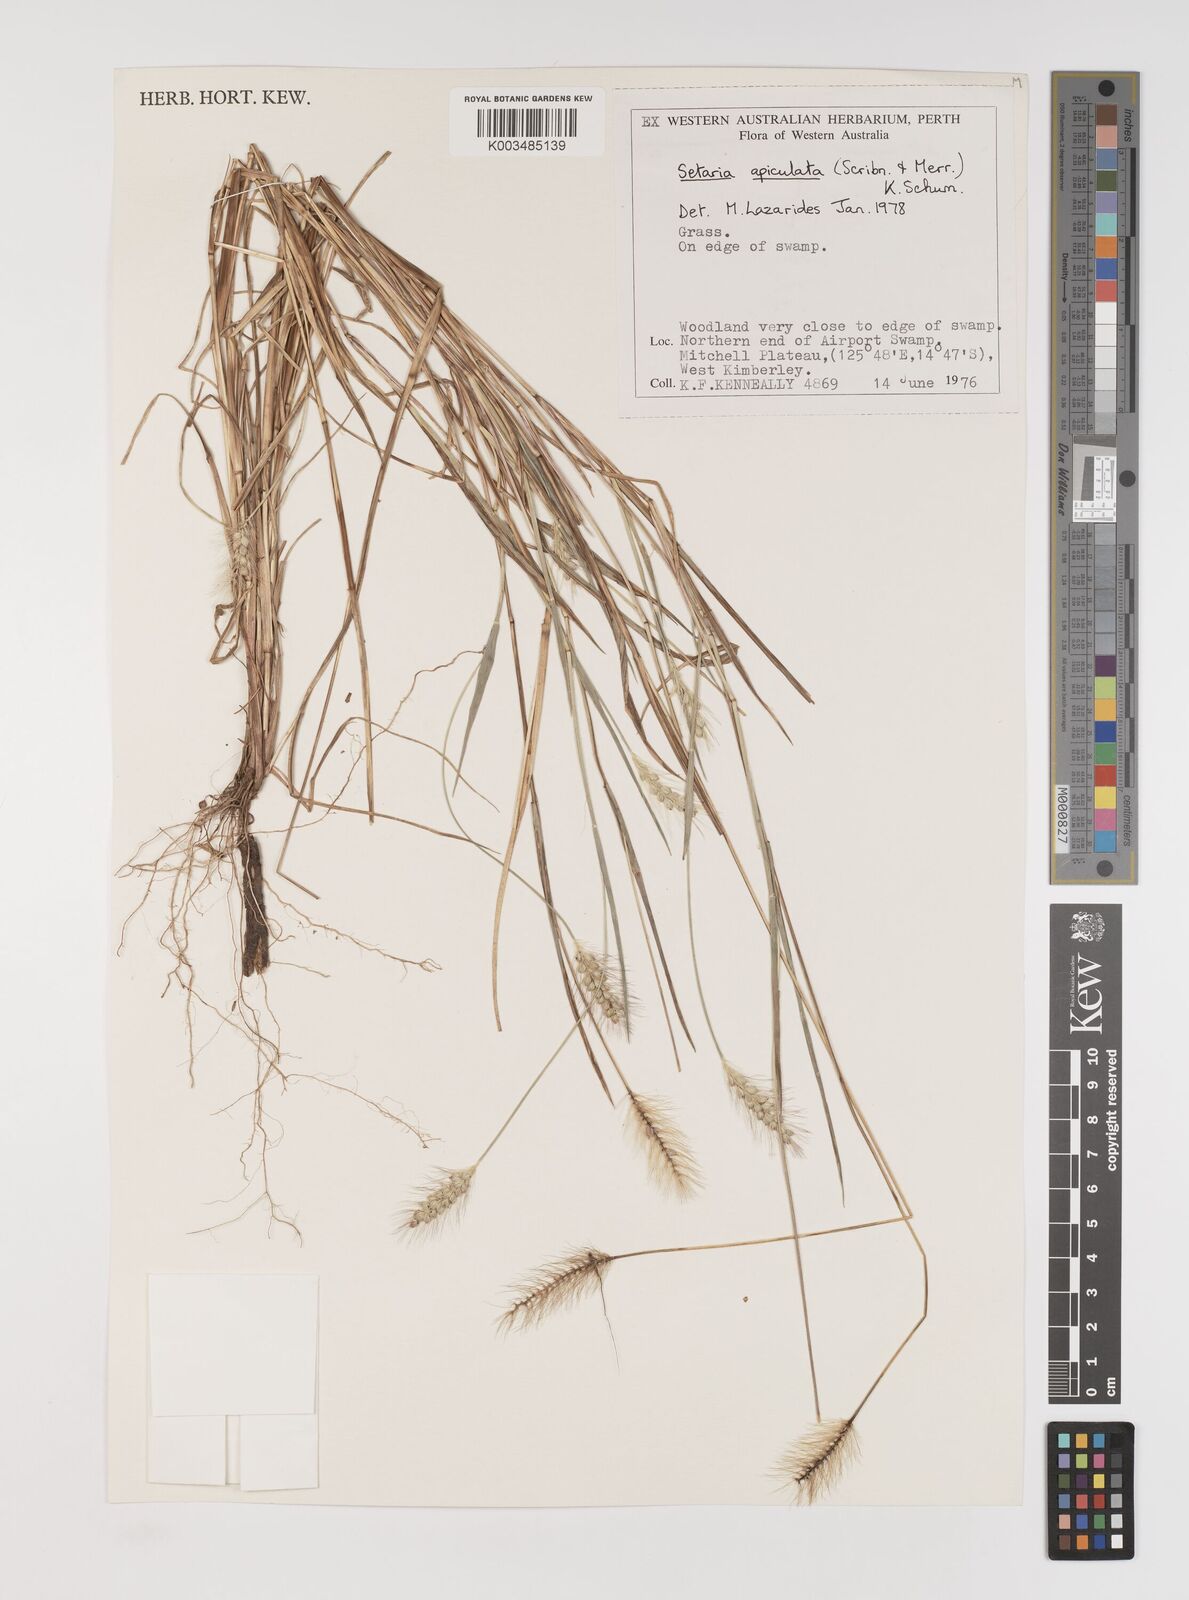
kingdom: Plantae
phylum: Tracheophyta
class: Liliopsida
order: Poales
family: Poaceae
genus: Setaria
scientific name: Setaria apiculata
